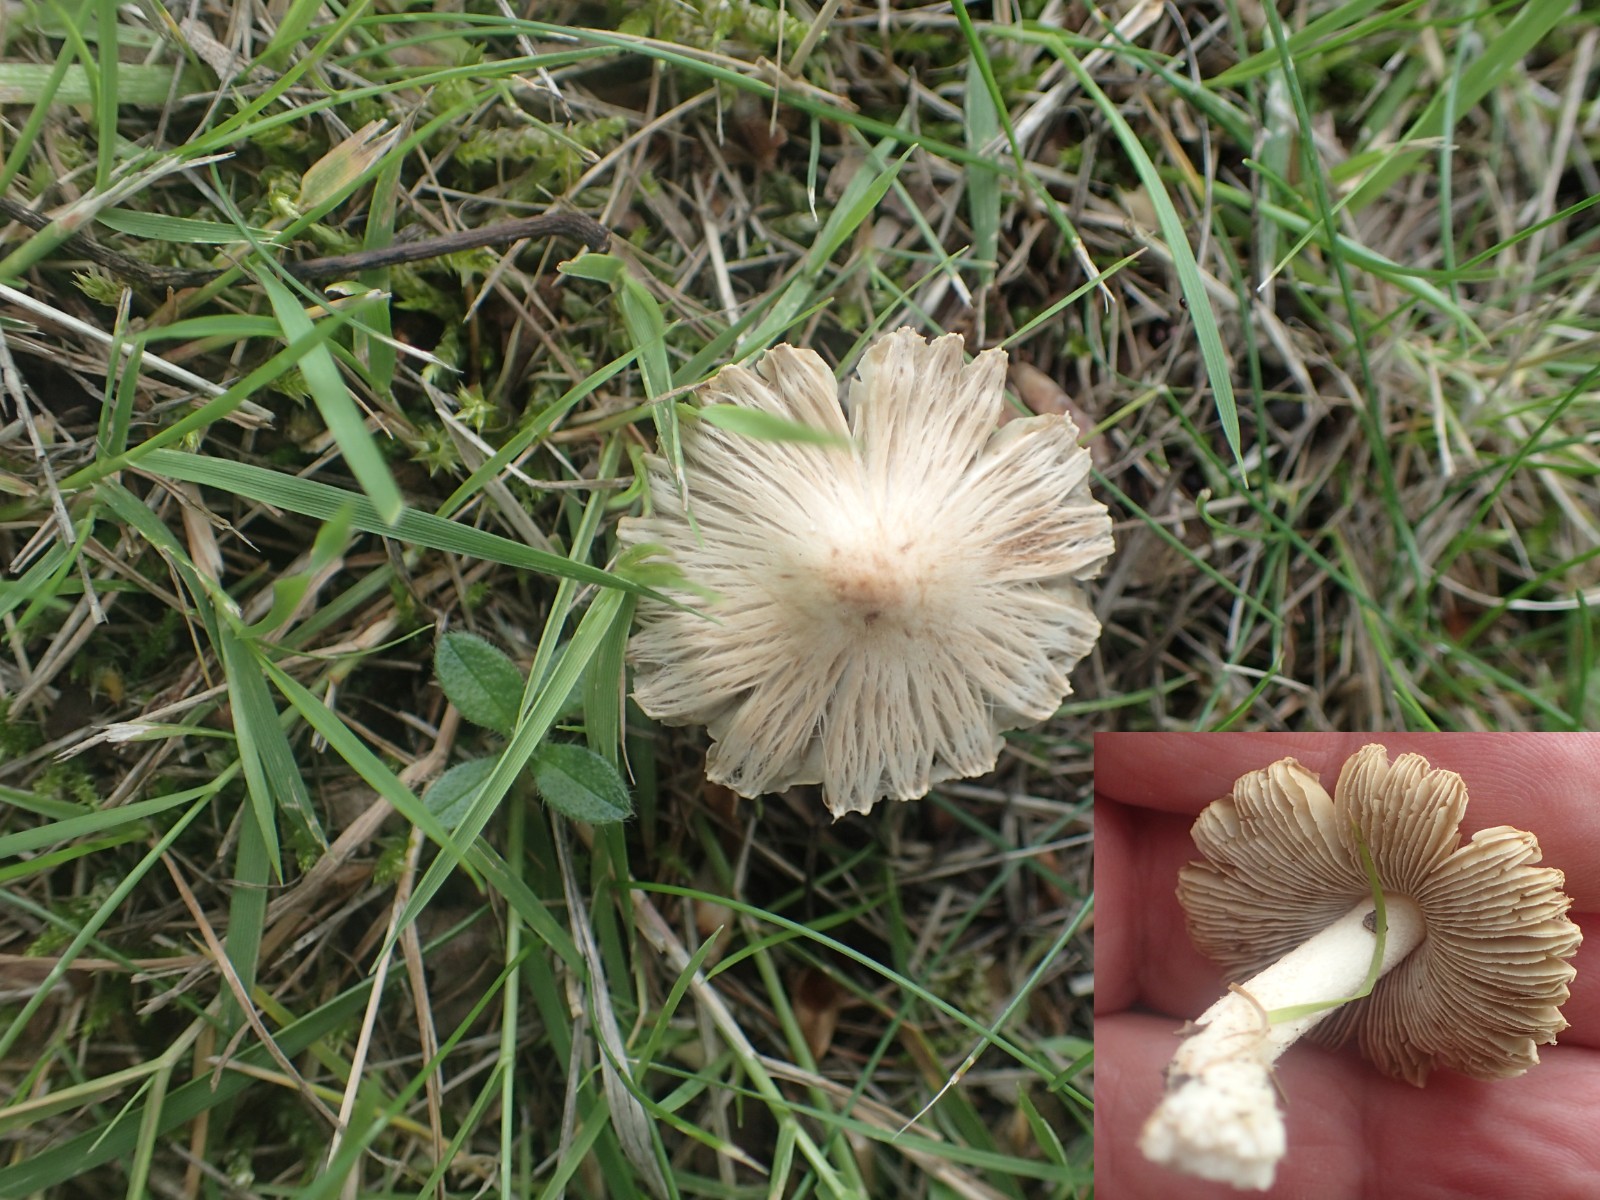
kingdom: Fungi
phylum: Basidiomycota
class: Agaricomycetes
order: Agaricales
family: Inocybaceae
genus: Pseudosperma
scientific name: Pseudosperma
